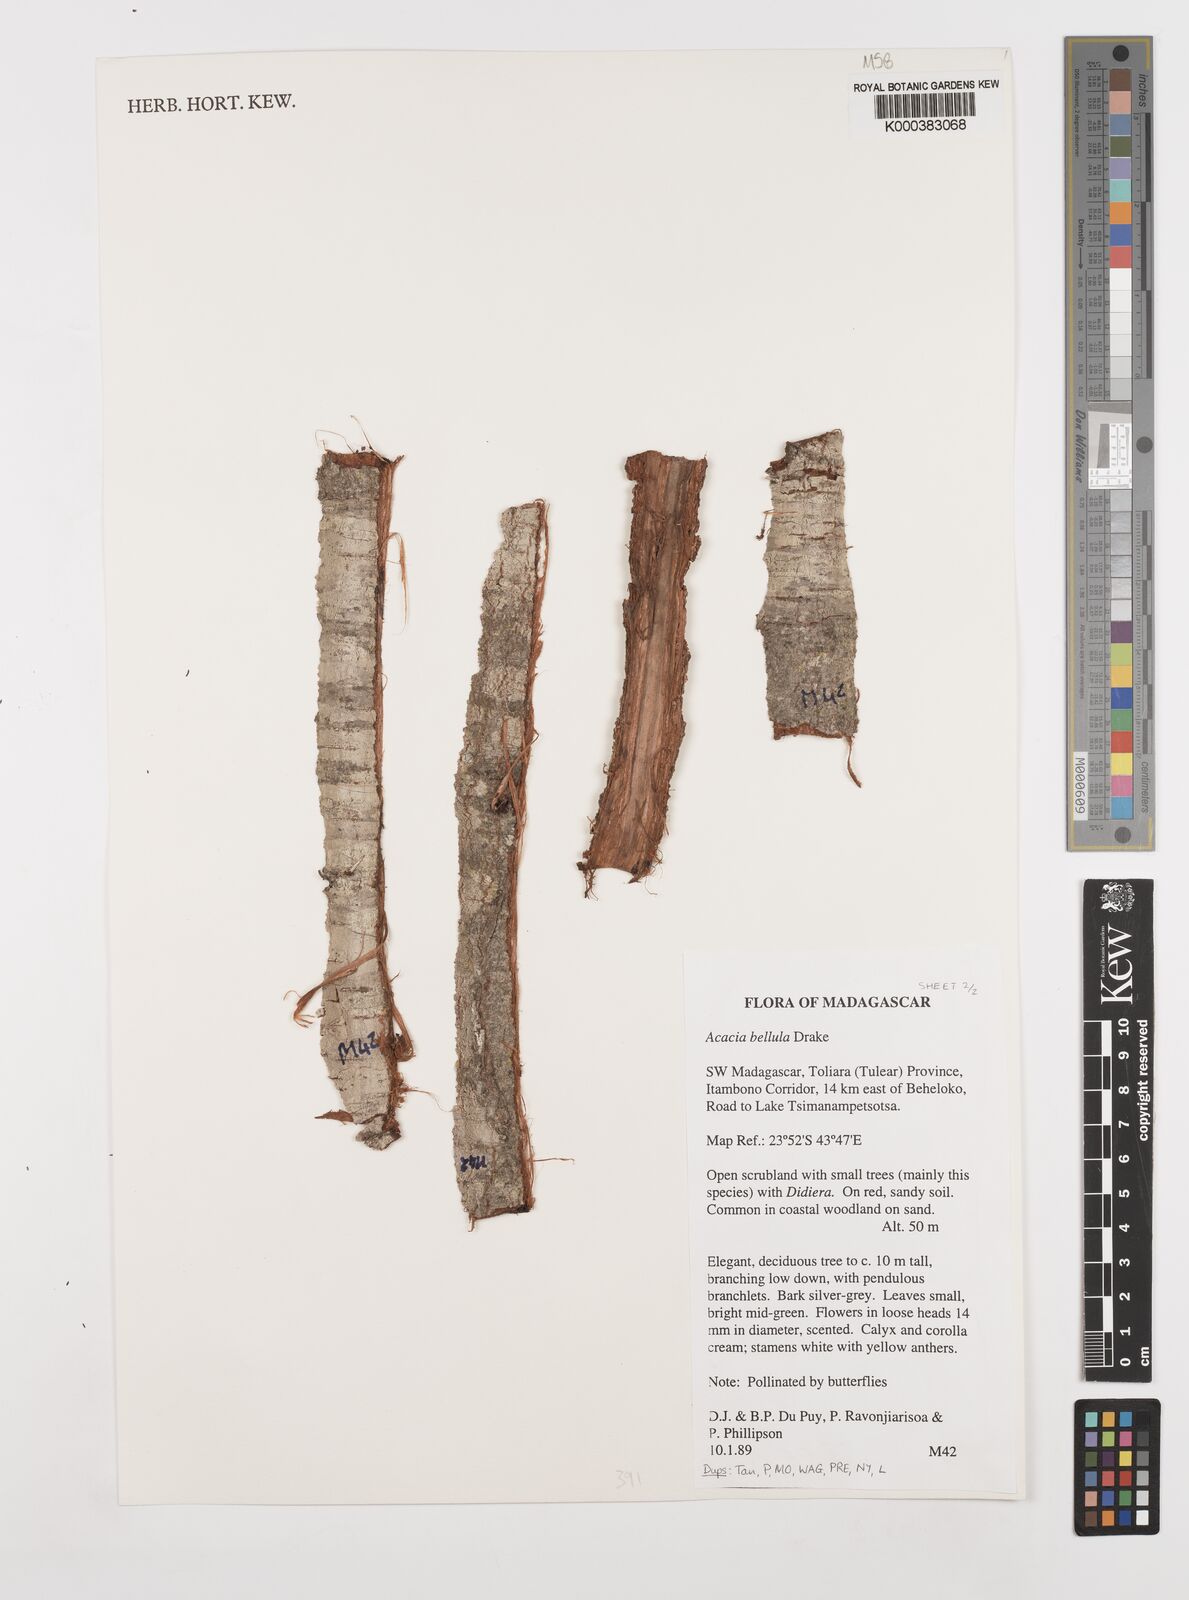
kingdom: Plantae
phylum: Tracheophyta
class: Magnoliopsida
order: Fabales
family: Fabaceae
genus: Vachellia
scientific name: Vachellia bellula
